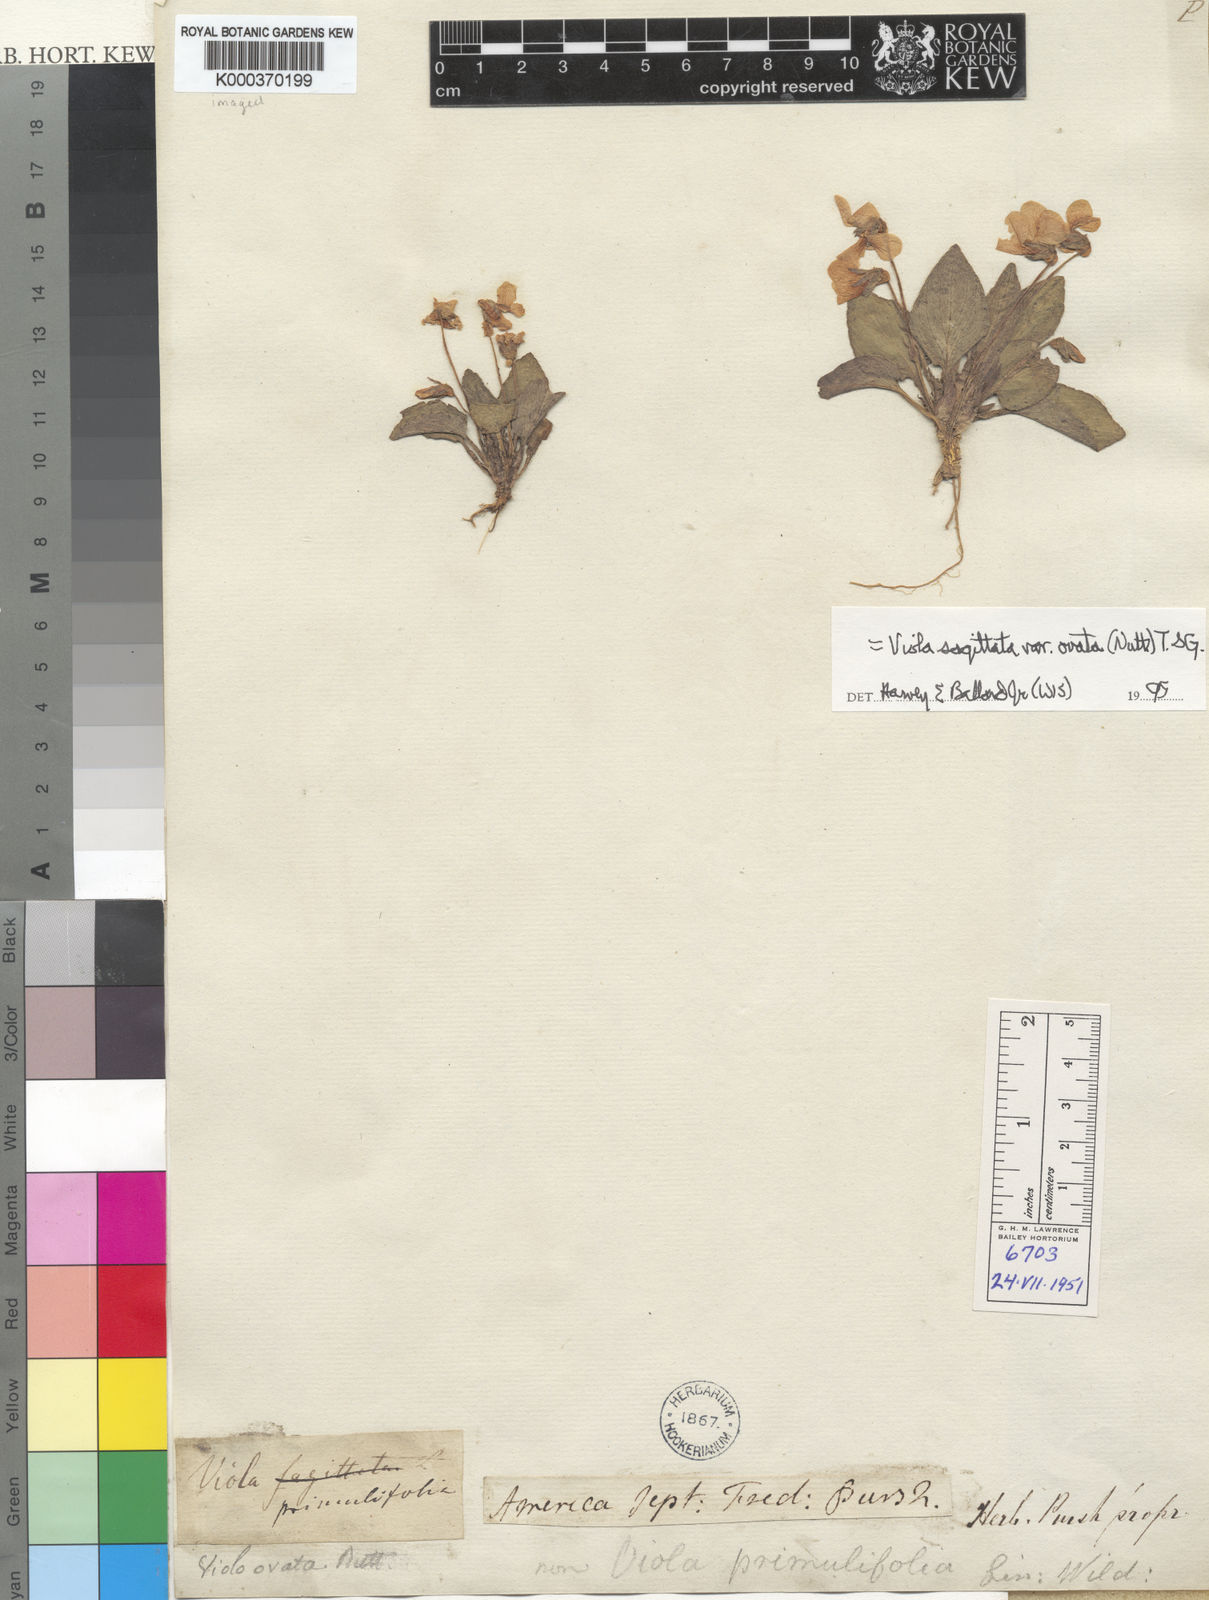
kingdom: Plantae
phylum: Tracheophyta
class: Magnoliopsida
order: Malpighiales
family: Violaceae
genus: Viola
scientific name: Viola primulifolia
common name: Primrose-leaf violet
